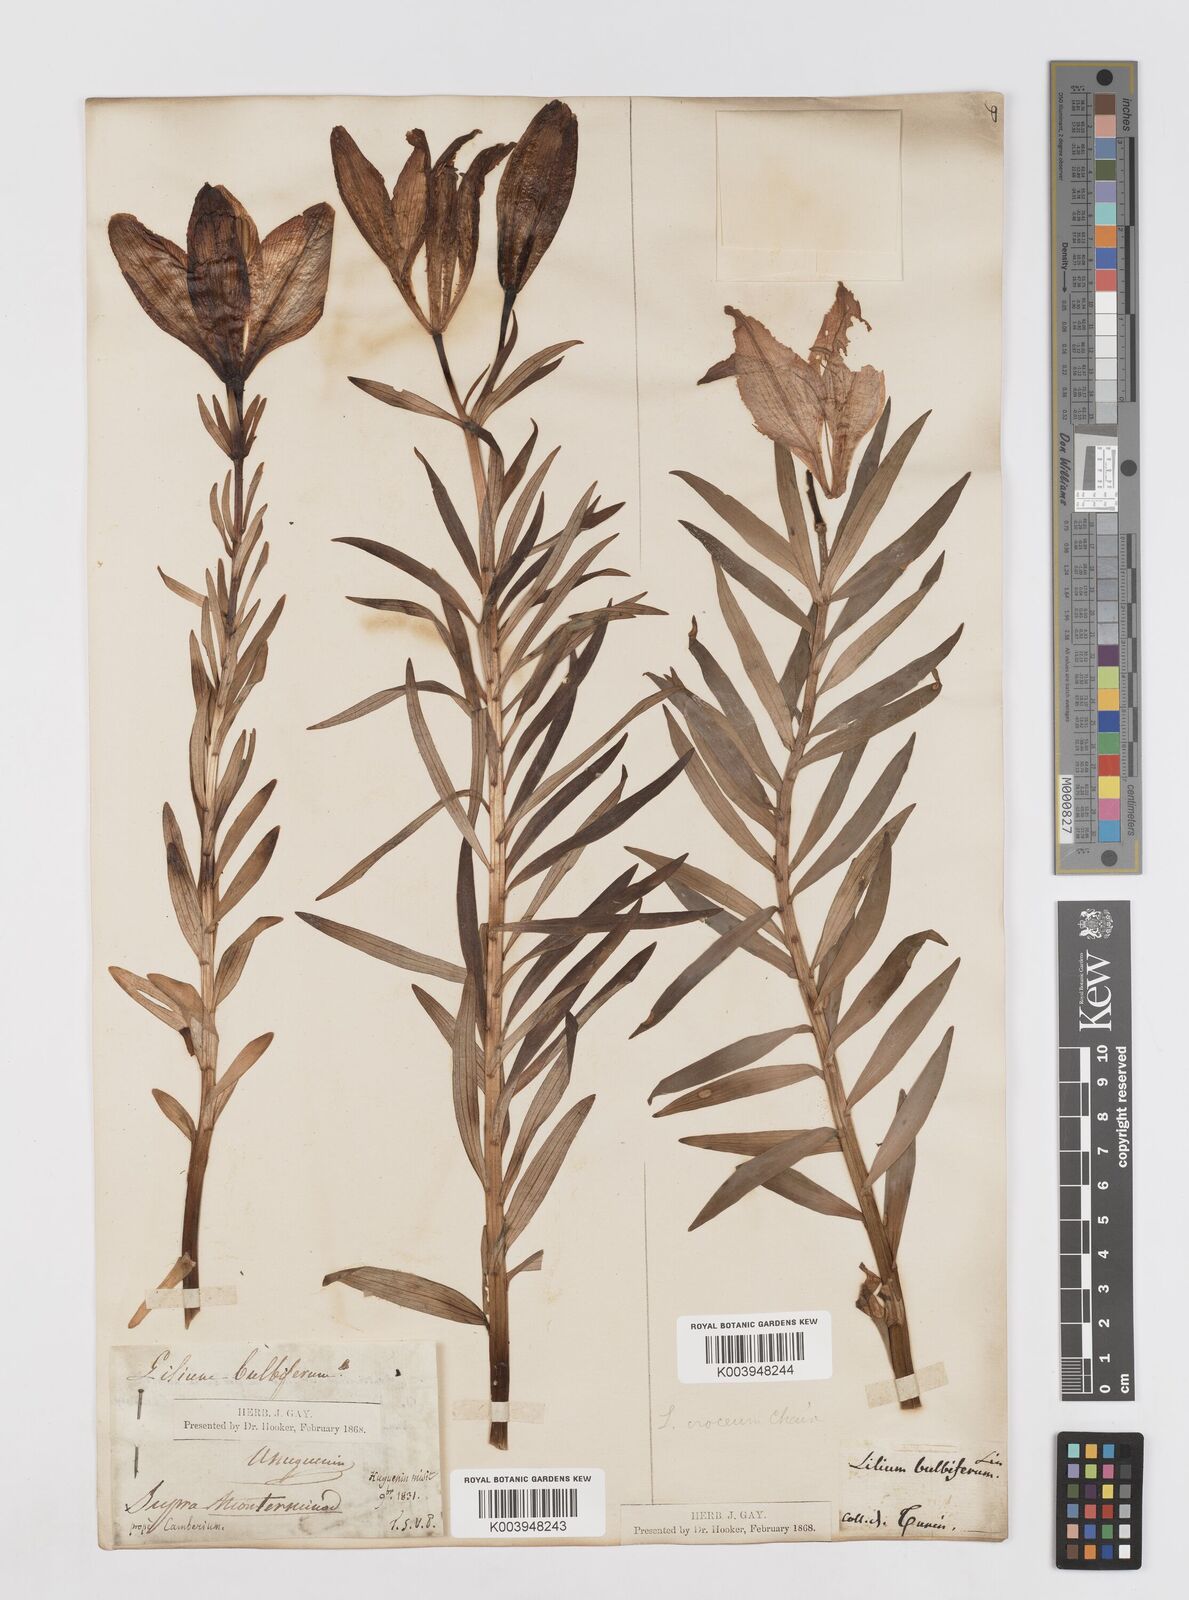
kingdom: Plantae
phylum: Tracheophyta
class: Liliopsida
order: Liliales
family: Liliaceae
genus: Lilium
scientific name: Lilium bulbiferum
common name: Orange lily
